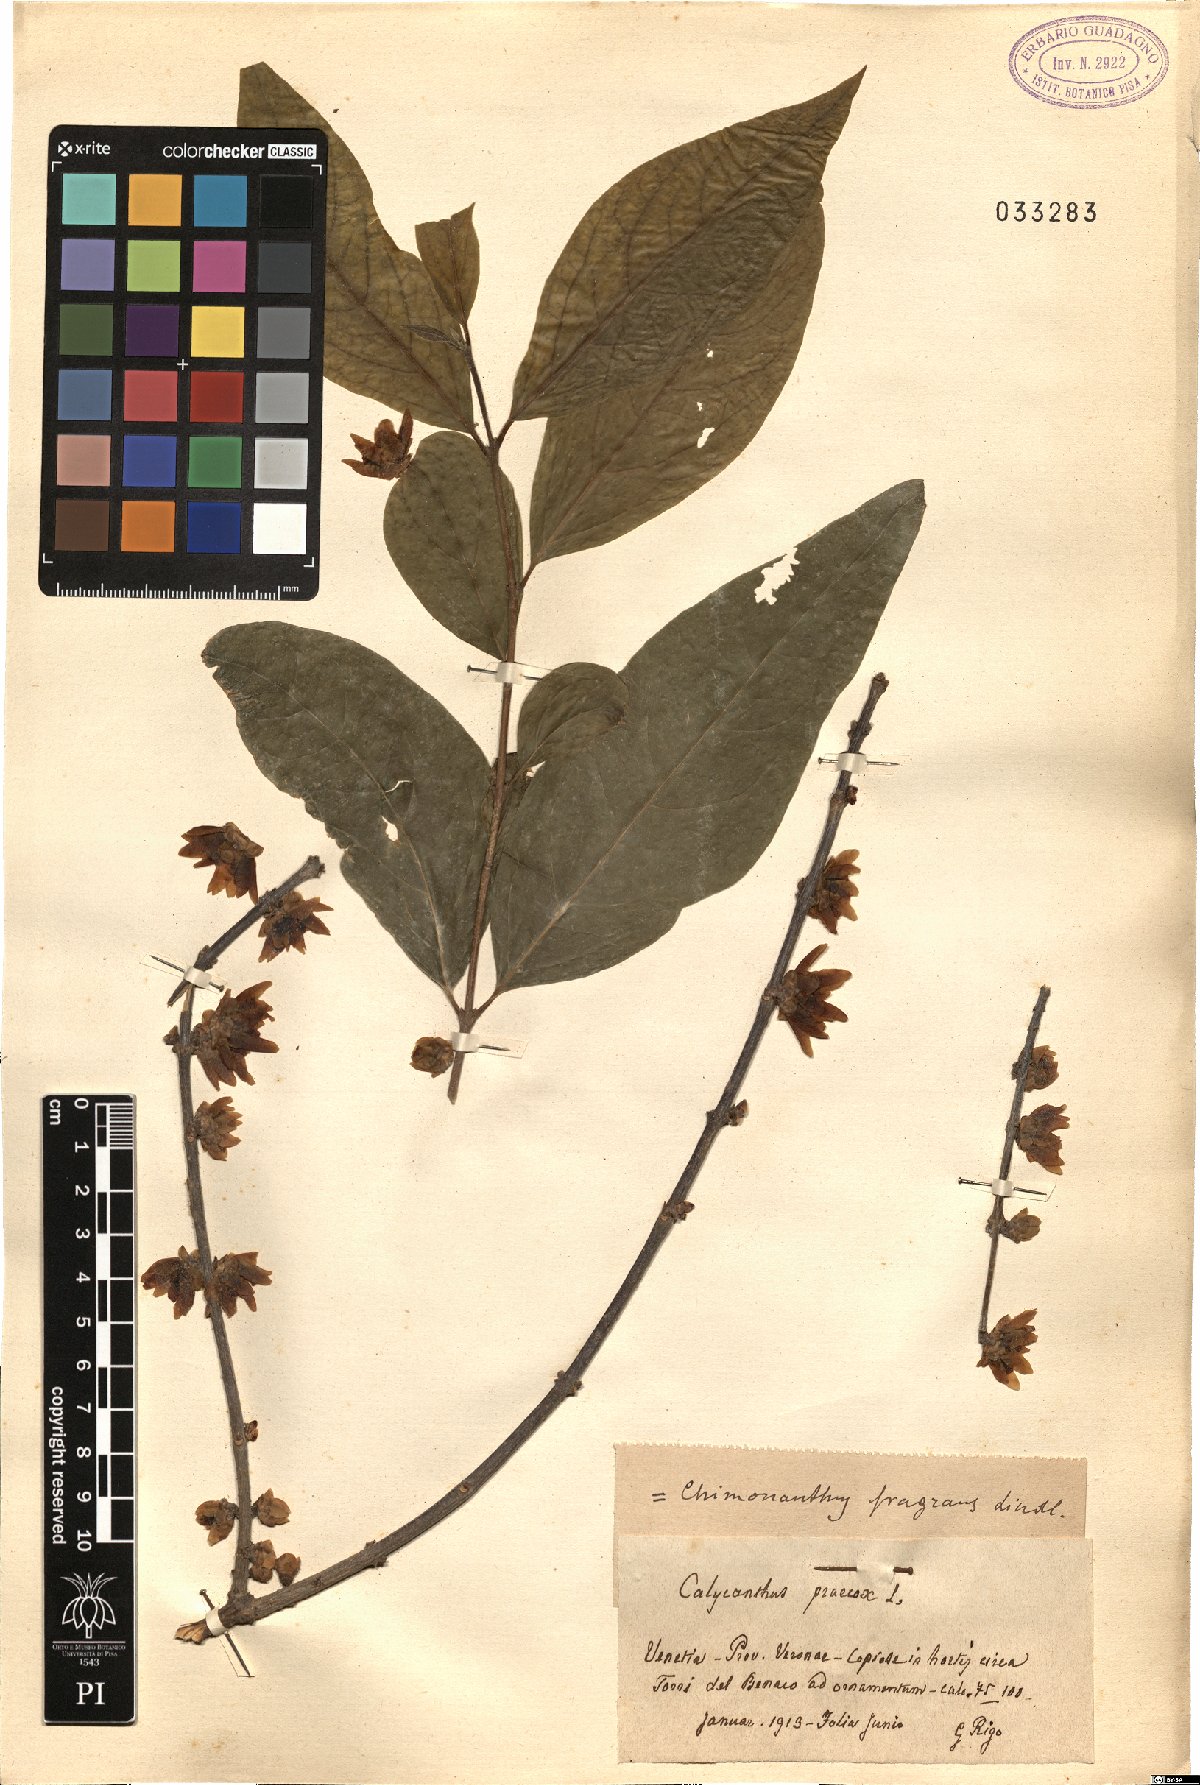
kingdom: Plantae
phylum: Tracheophyta
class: Magnoliopsida
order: Laurales
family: Calycanthaceae
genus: Chimonanthus
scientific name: Chimonanthus praecox
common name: Wintersweet
